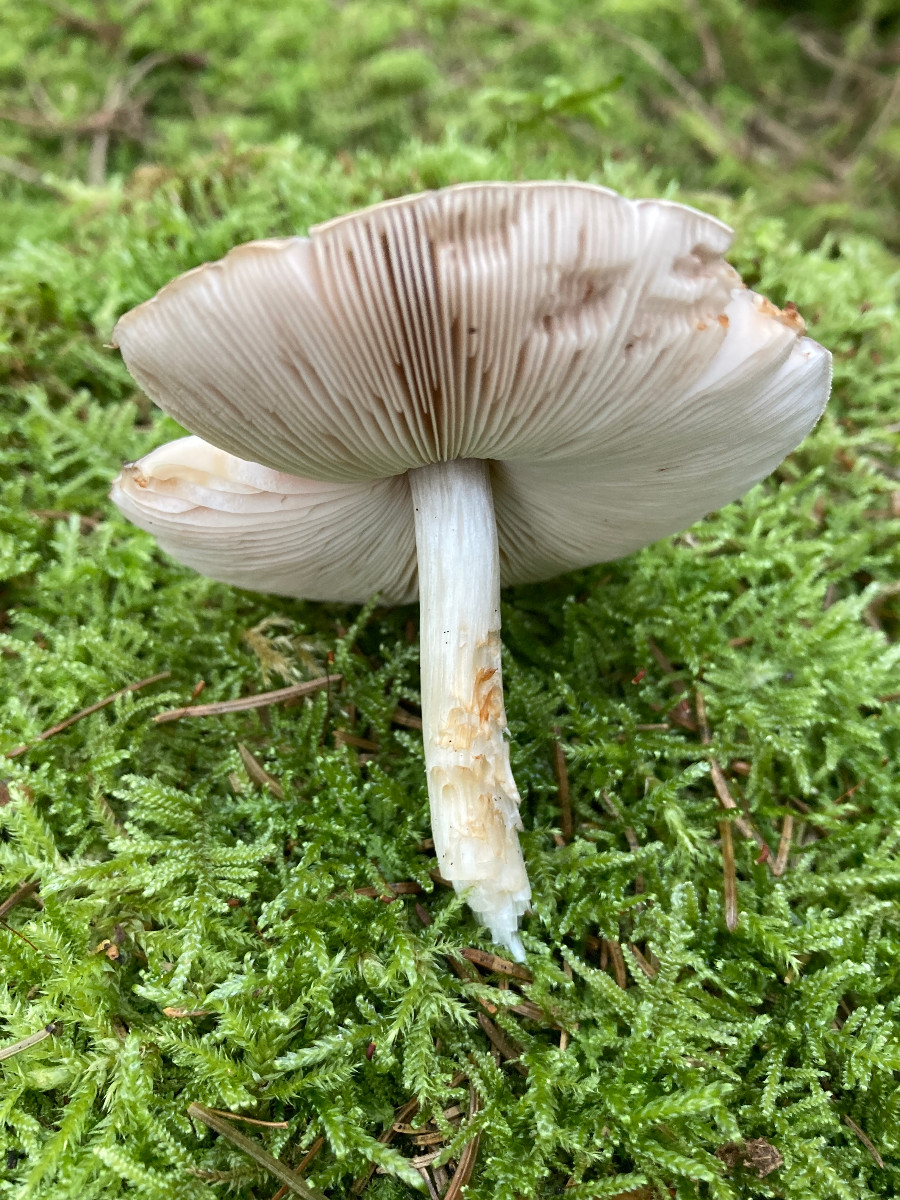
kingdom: Fungi
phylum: Basidiomycota
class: Agaricomycetes
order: Agaricales
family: Pluteaceae
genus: Pluteus
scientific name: Pluteus
